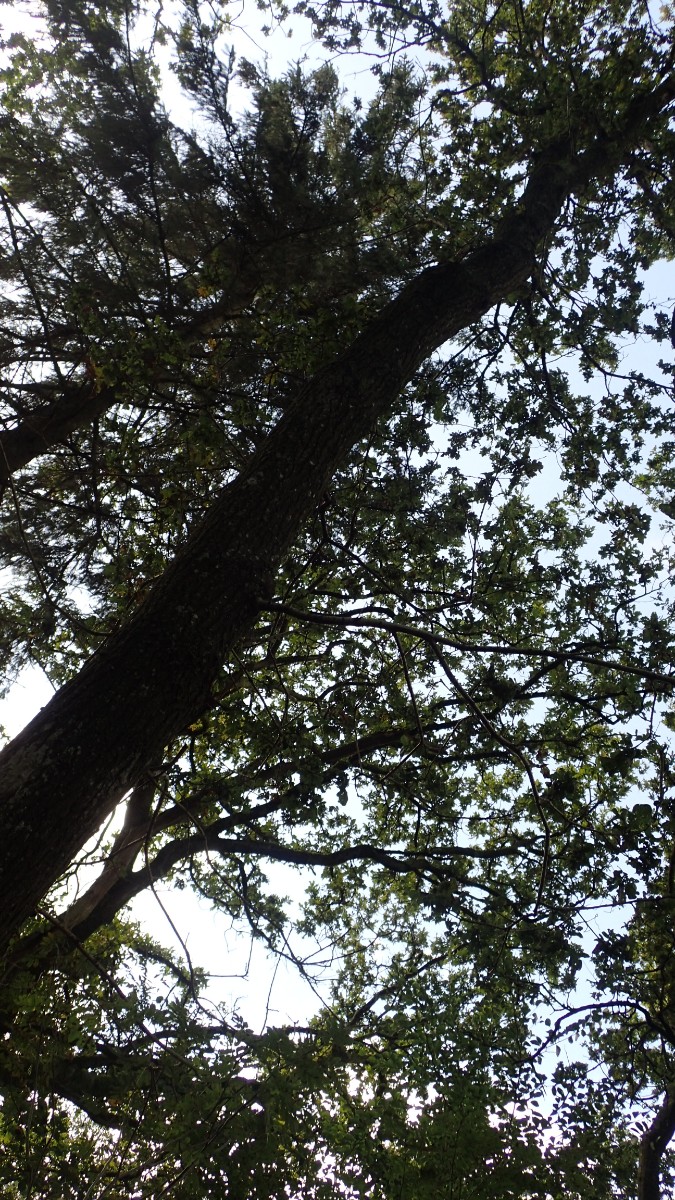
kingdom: Fungi
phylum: Basidiomycota
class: Agaricomycetes
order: Agaricales
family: Tricholomataceae
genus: Tricholoma
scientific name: Tricholoma sulphureum
